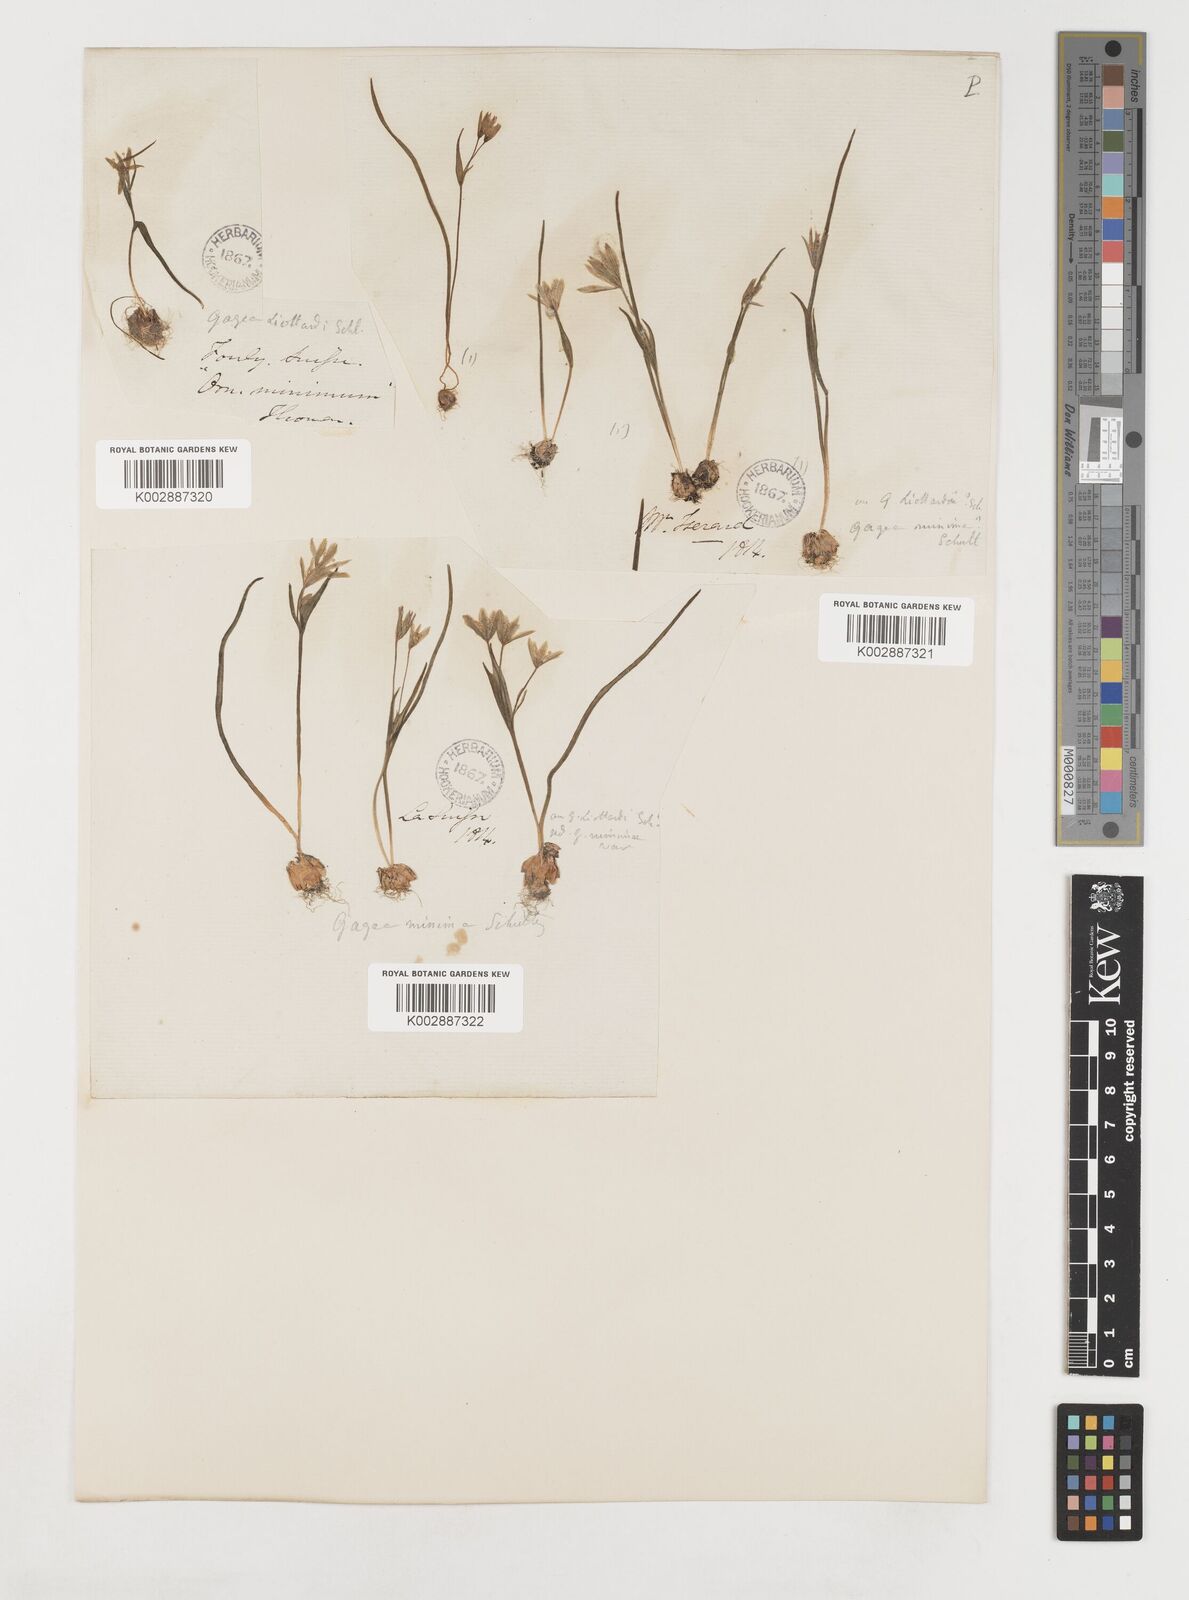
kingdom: Plantae
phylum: Tracheophyta
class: Liliopsida
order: Liliales
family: Liliaceae
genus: Gagea
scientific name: Gagea bohemica
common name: Early star-of-bethlehem
